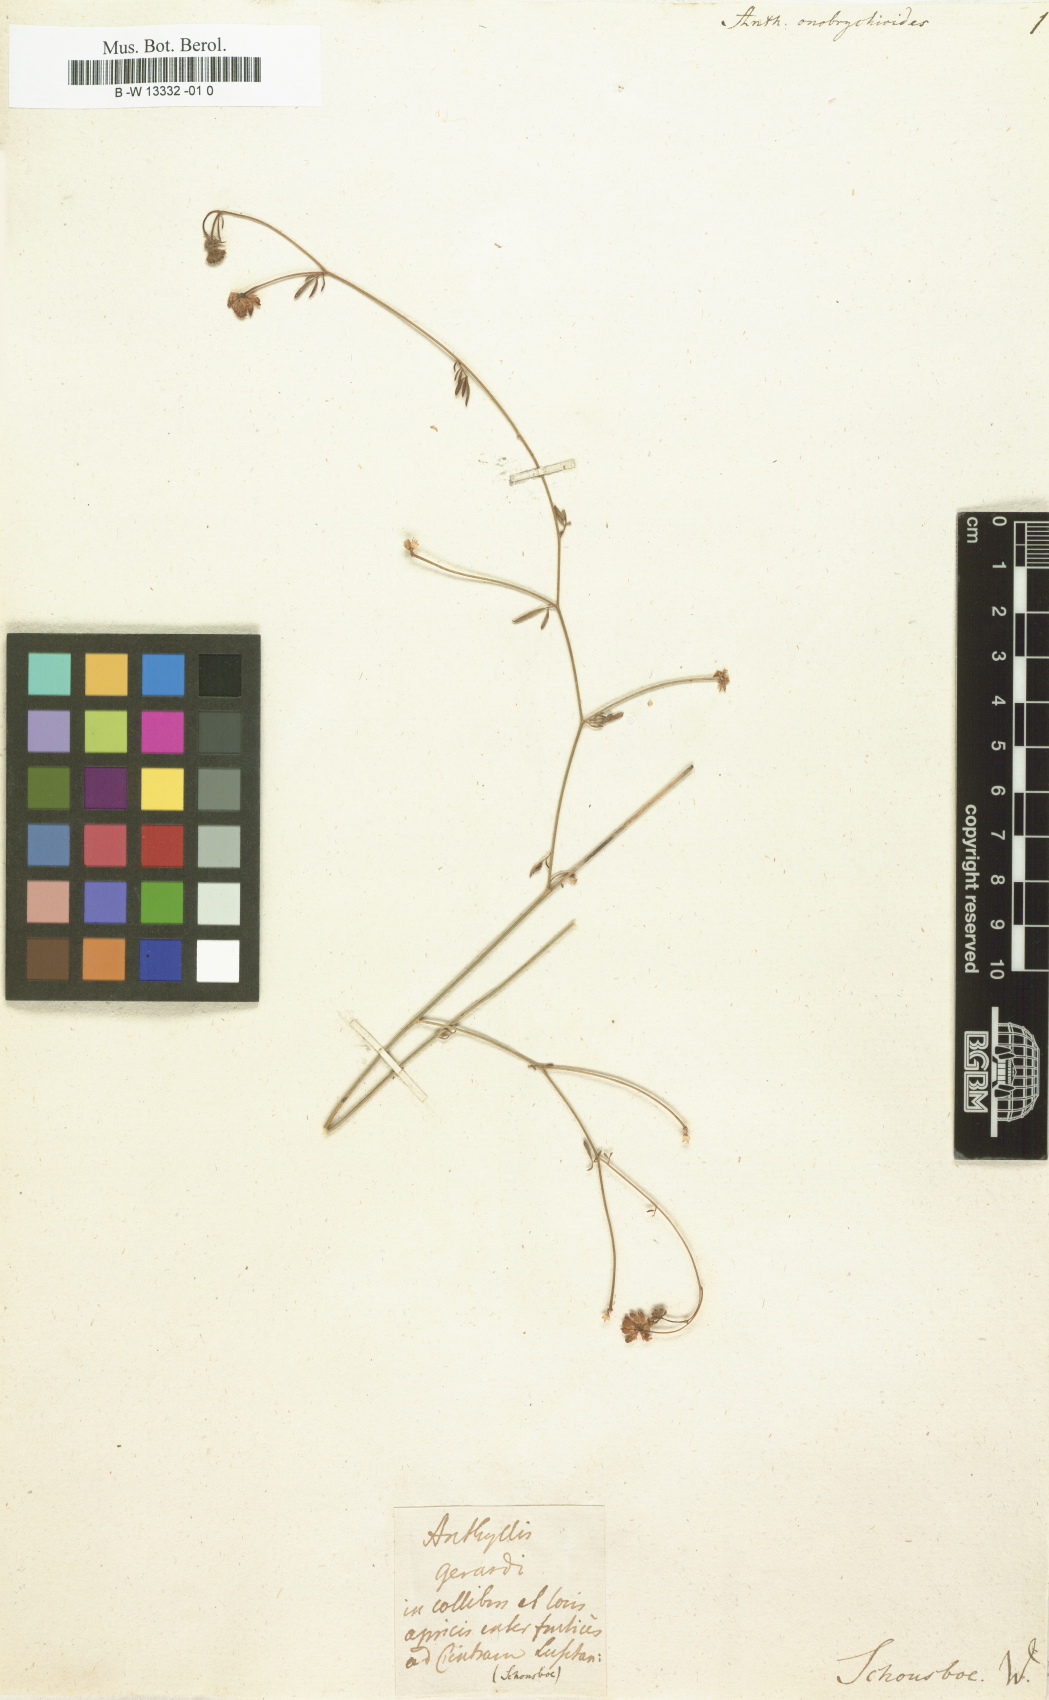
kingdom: Plantae
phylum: Tracheophyta
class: Magnoliopsida
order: Fabales
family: Fabaceae
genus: Anthyllis
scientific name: Anthyllis onobrychioides
